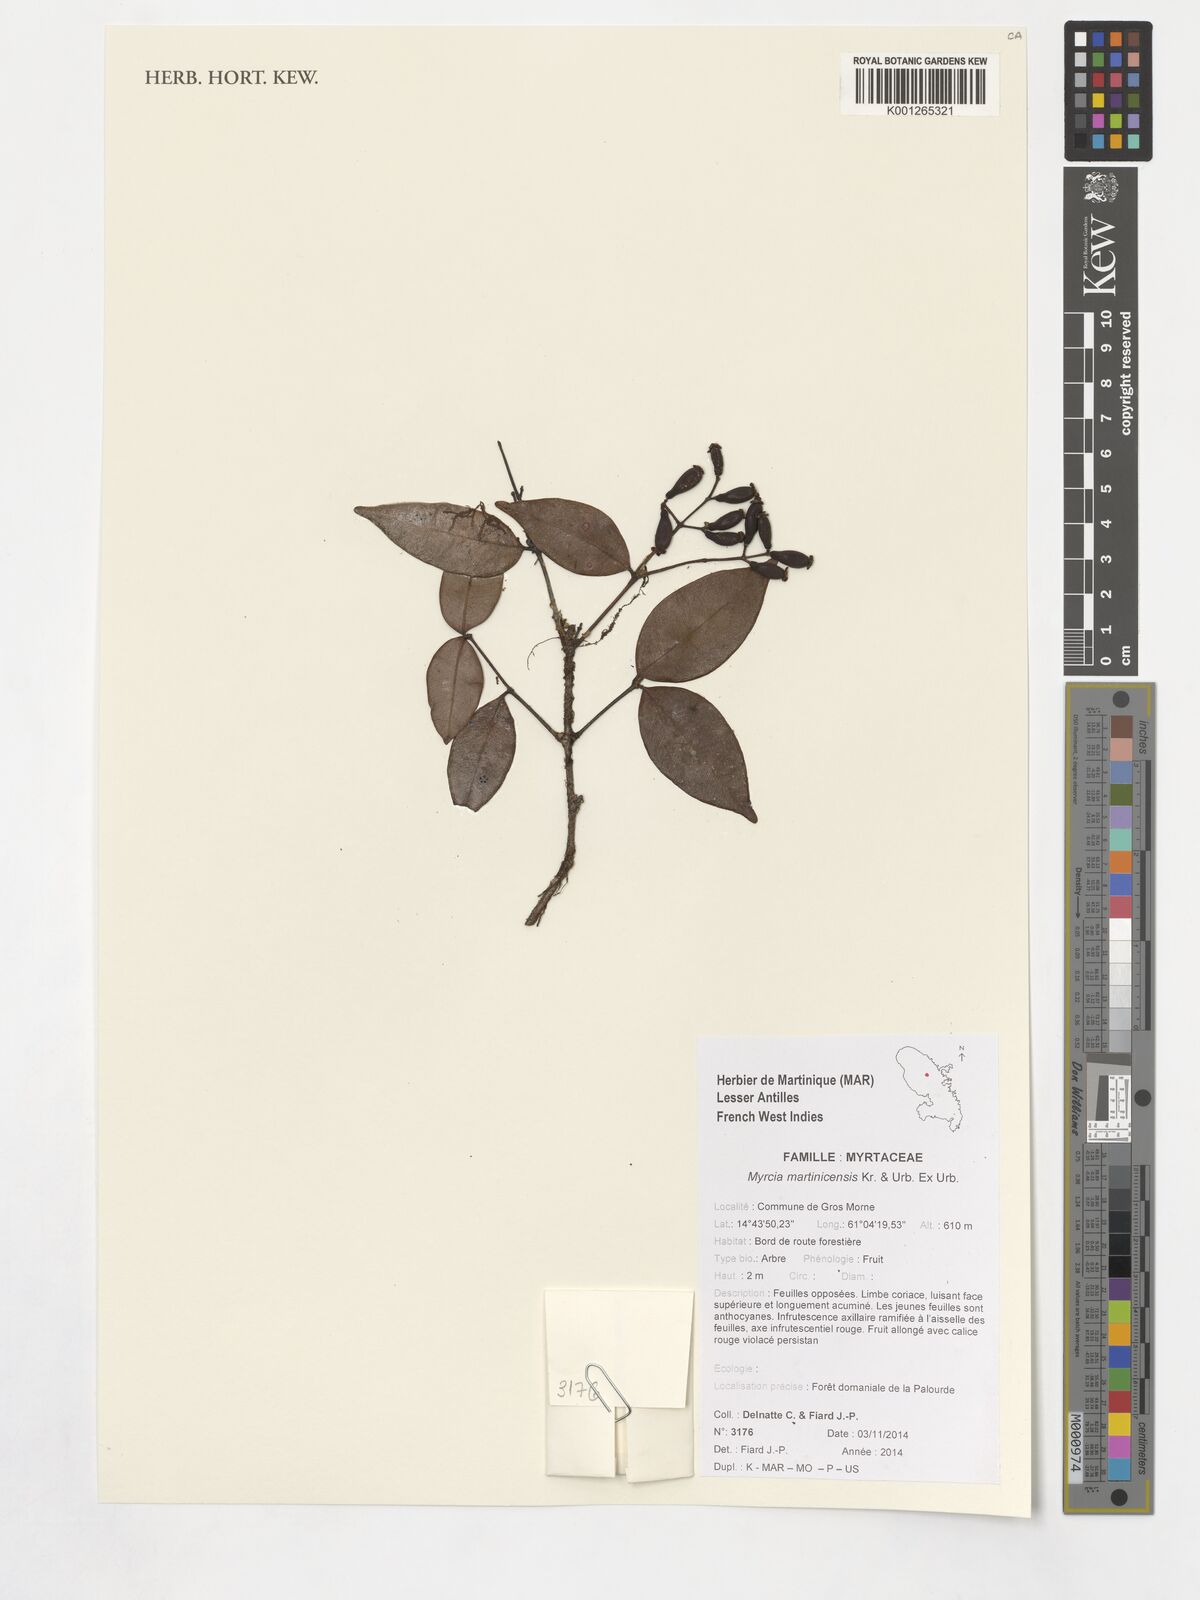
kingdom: Plantae
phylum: Tracheophyta
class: Magnoliopsida
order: Myrtales
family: Myrtaceae
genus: Myrcia
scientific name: Myrcia splendens
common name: Surinam cherry
